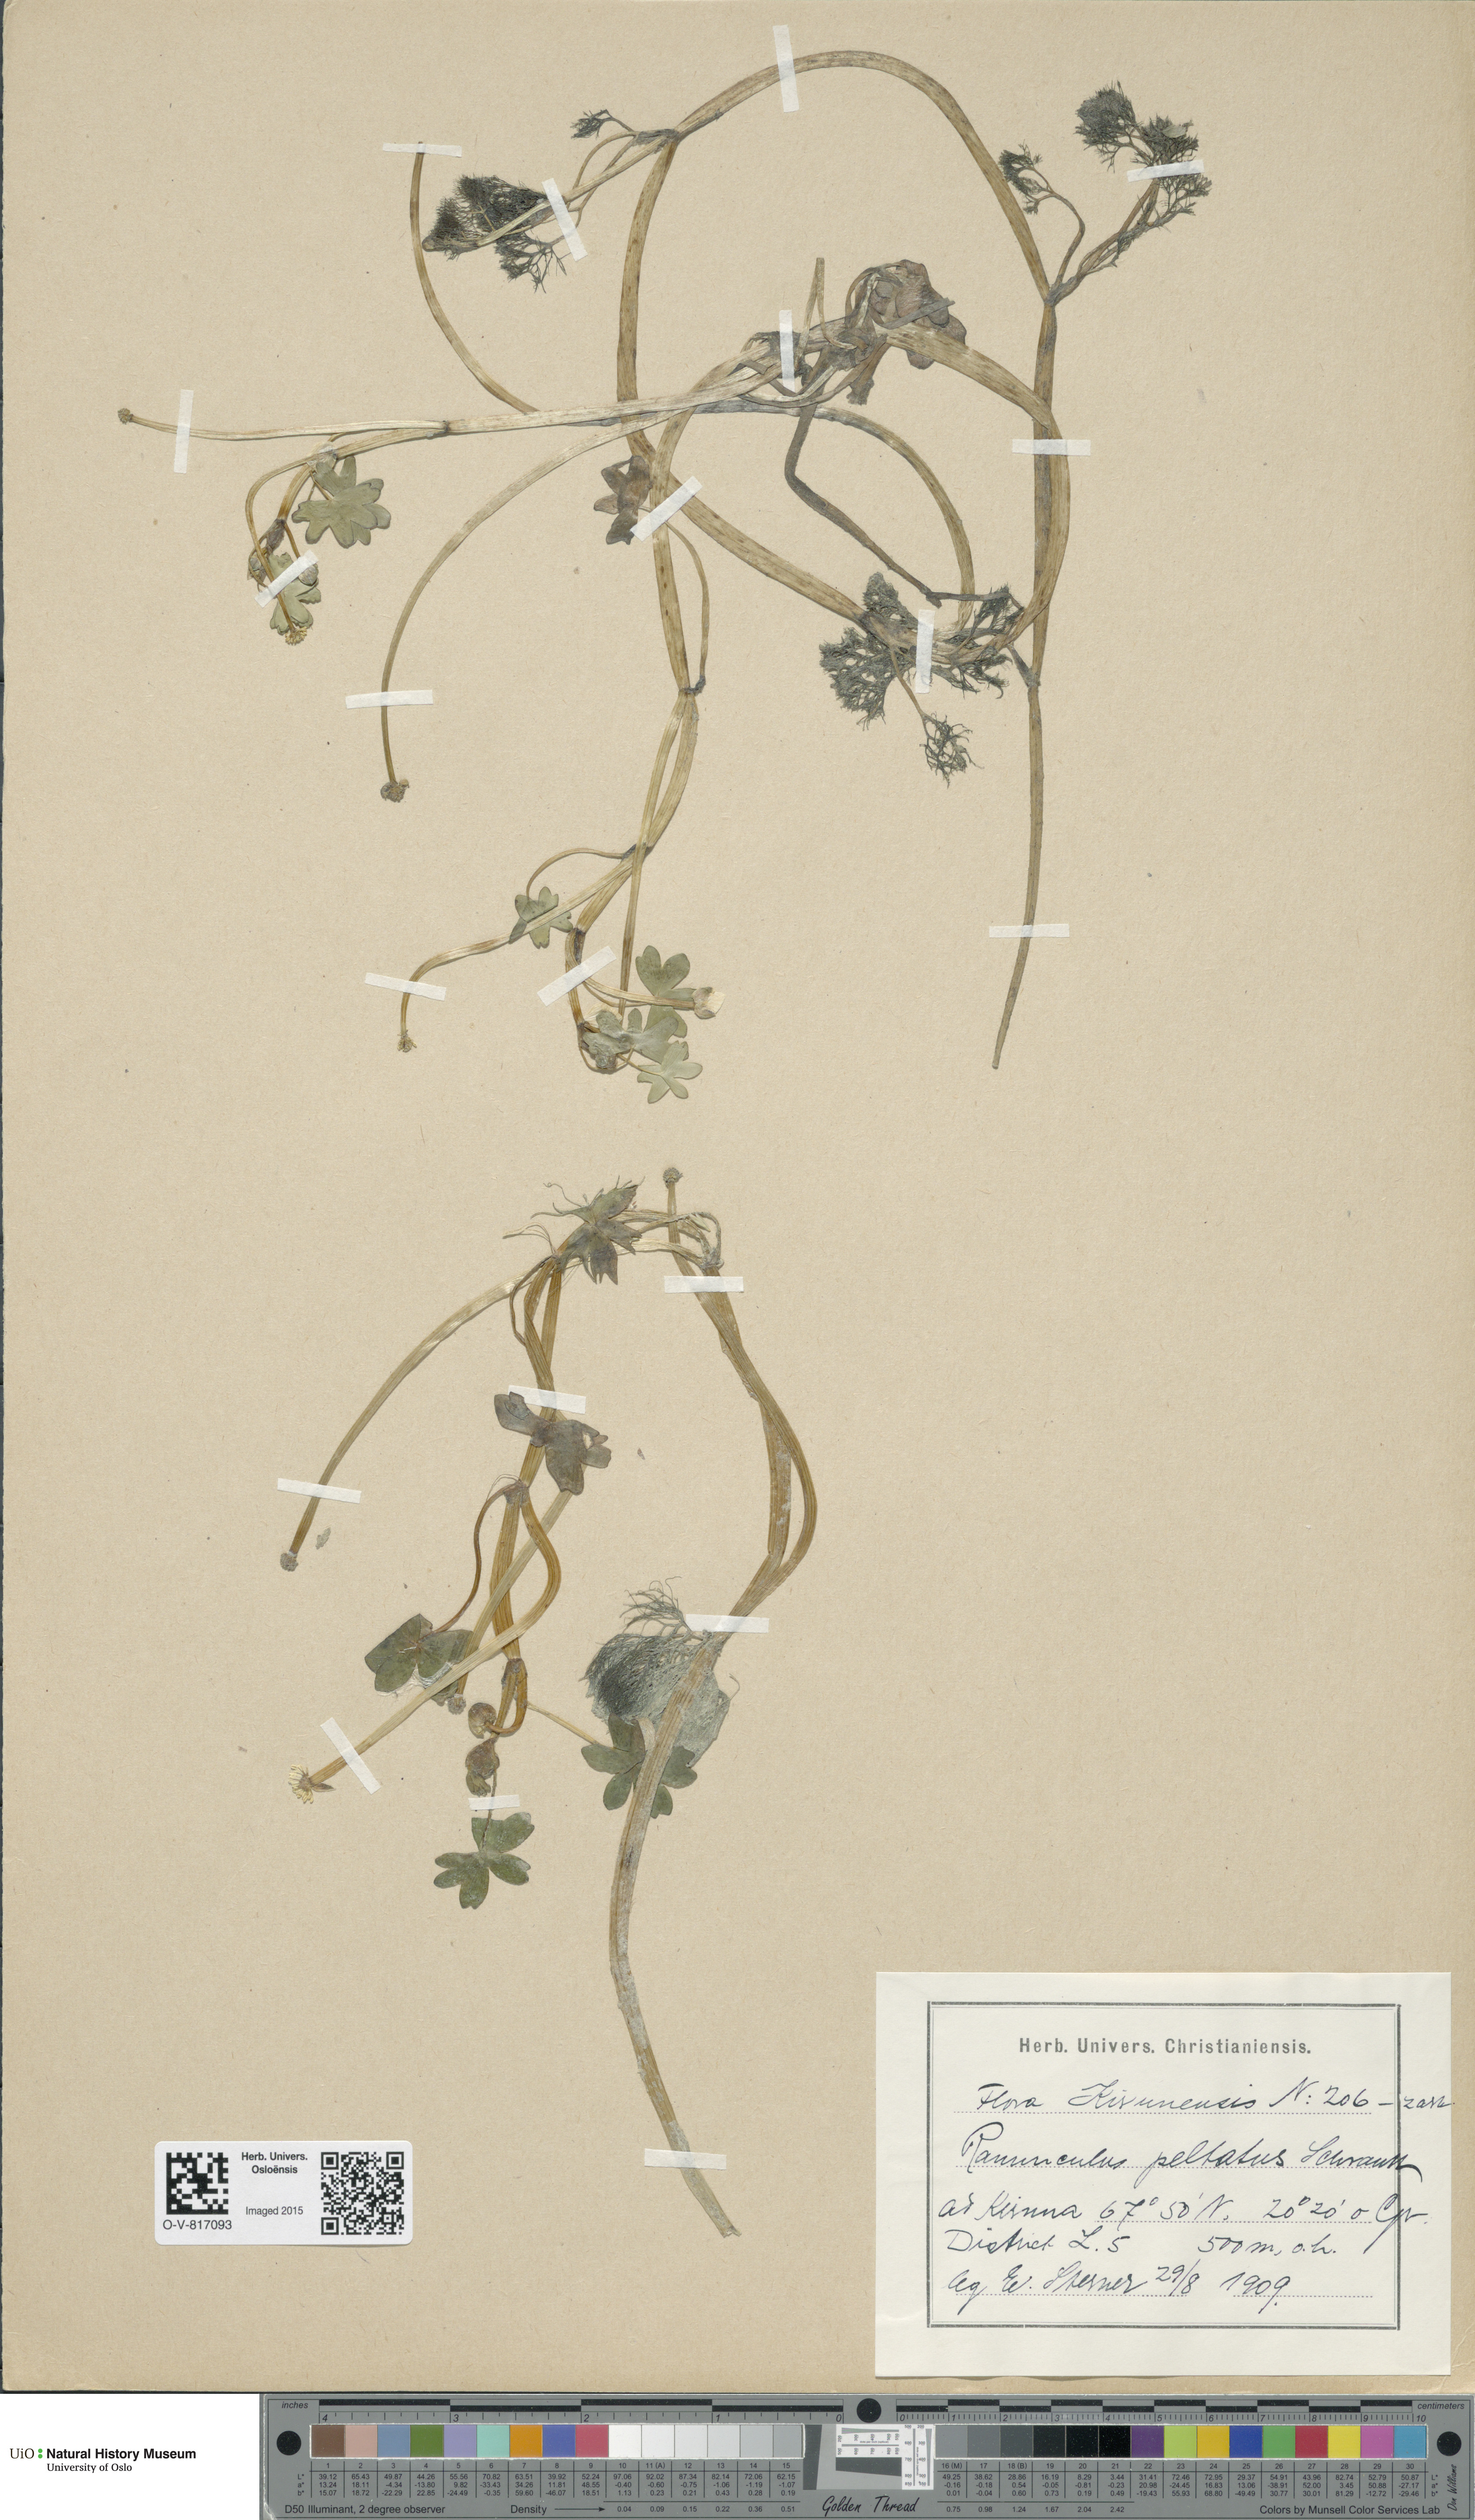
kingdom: Plantae
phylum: Tracheophyta
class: Magnoliopsida
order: Ranunculales
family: Ranunculaceae
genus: Ranunculus
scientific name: Ranunculus peltatus
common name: Pond water-crowfoot
